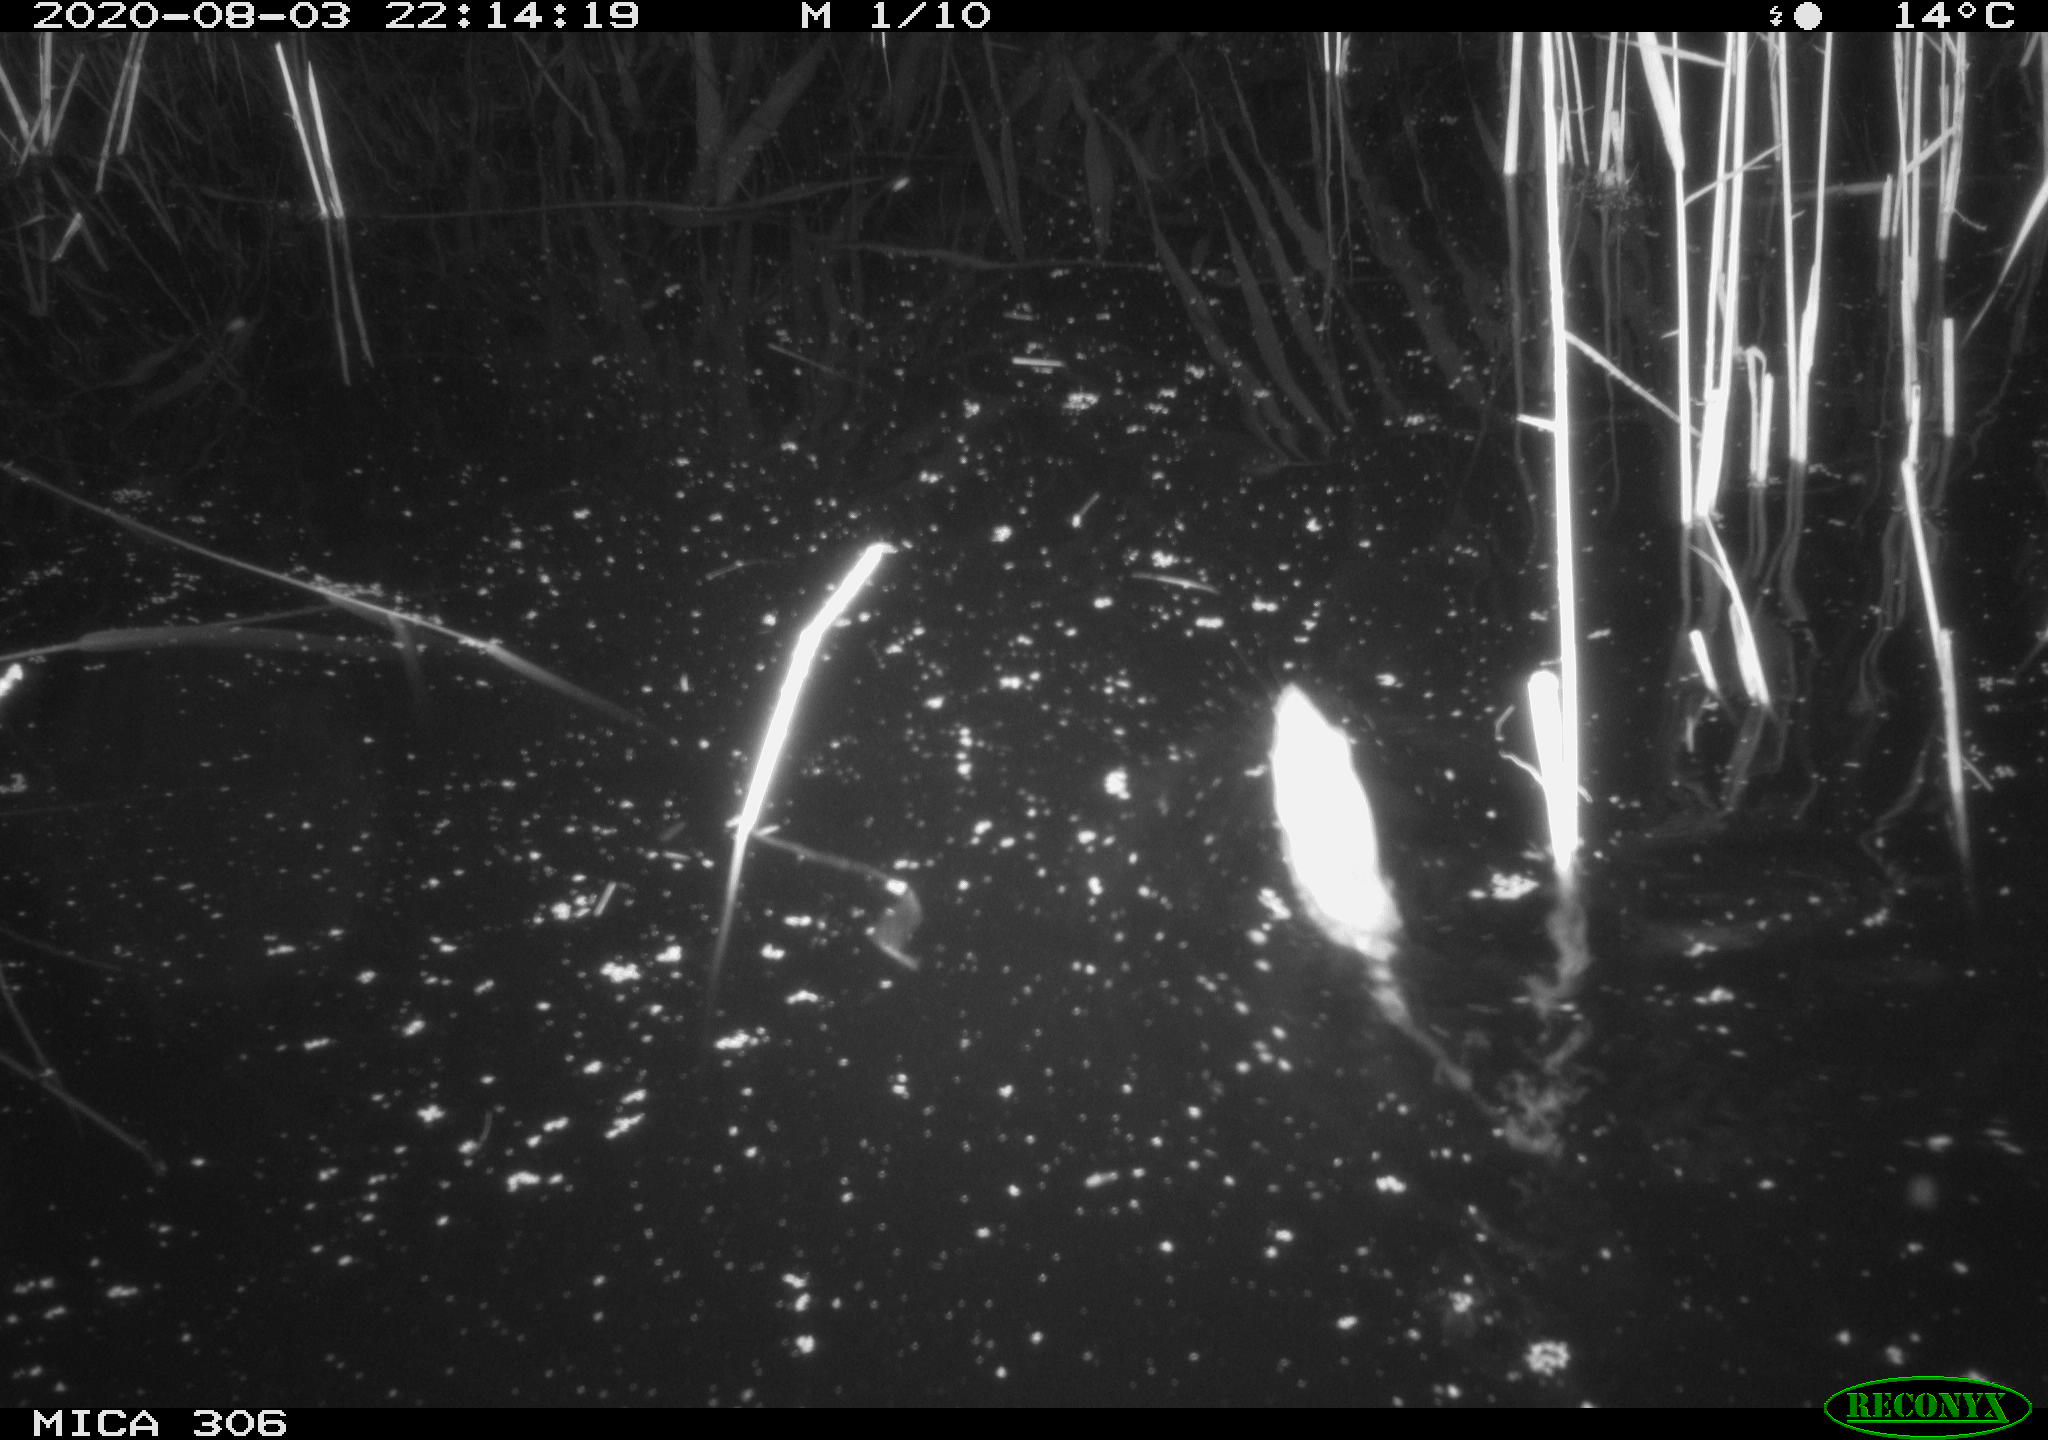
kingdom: Animalia
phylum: Chordata
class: Mammalia
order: Rodentia
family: Muridae
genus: Rattus
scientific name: Rattus norvegicus
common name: Brown rat
